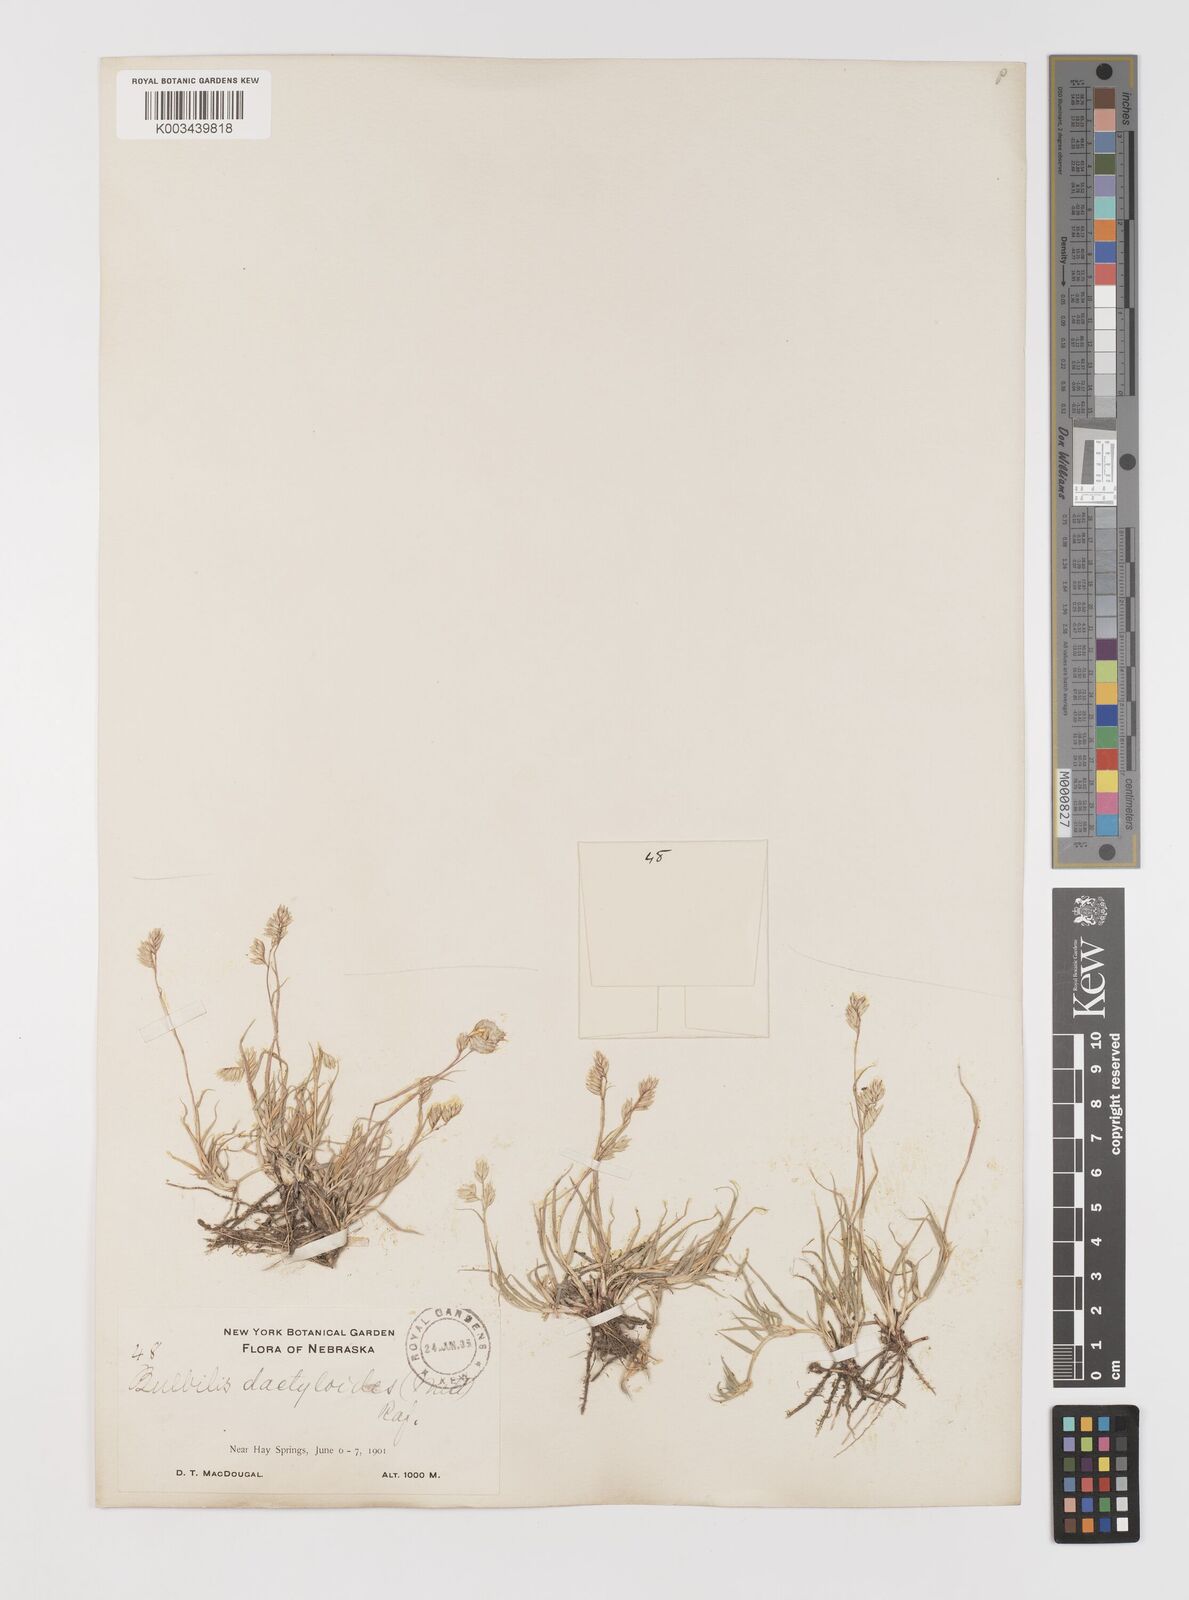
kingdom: Plantae
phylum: Tracheophyta
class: Liliopsida
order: Poales
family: Poaceae
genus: Bouteloua
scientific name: Bouteloua dactyloides
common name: Buffalo grass
